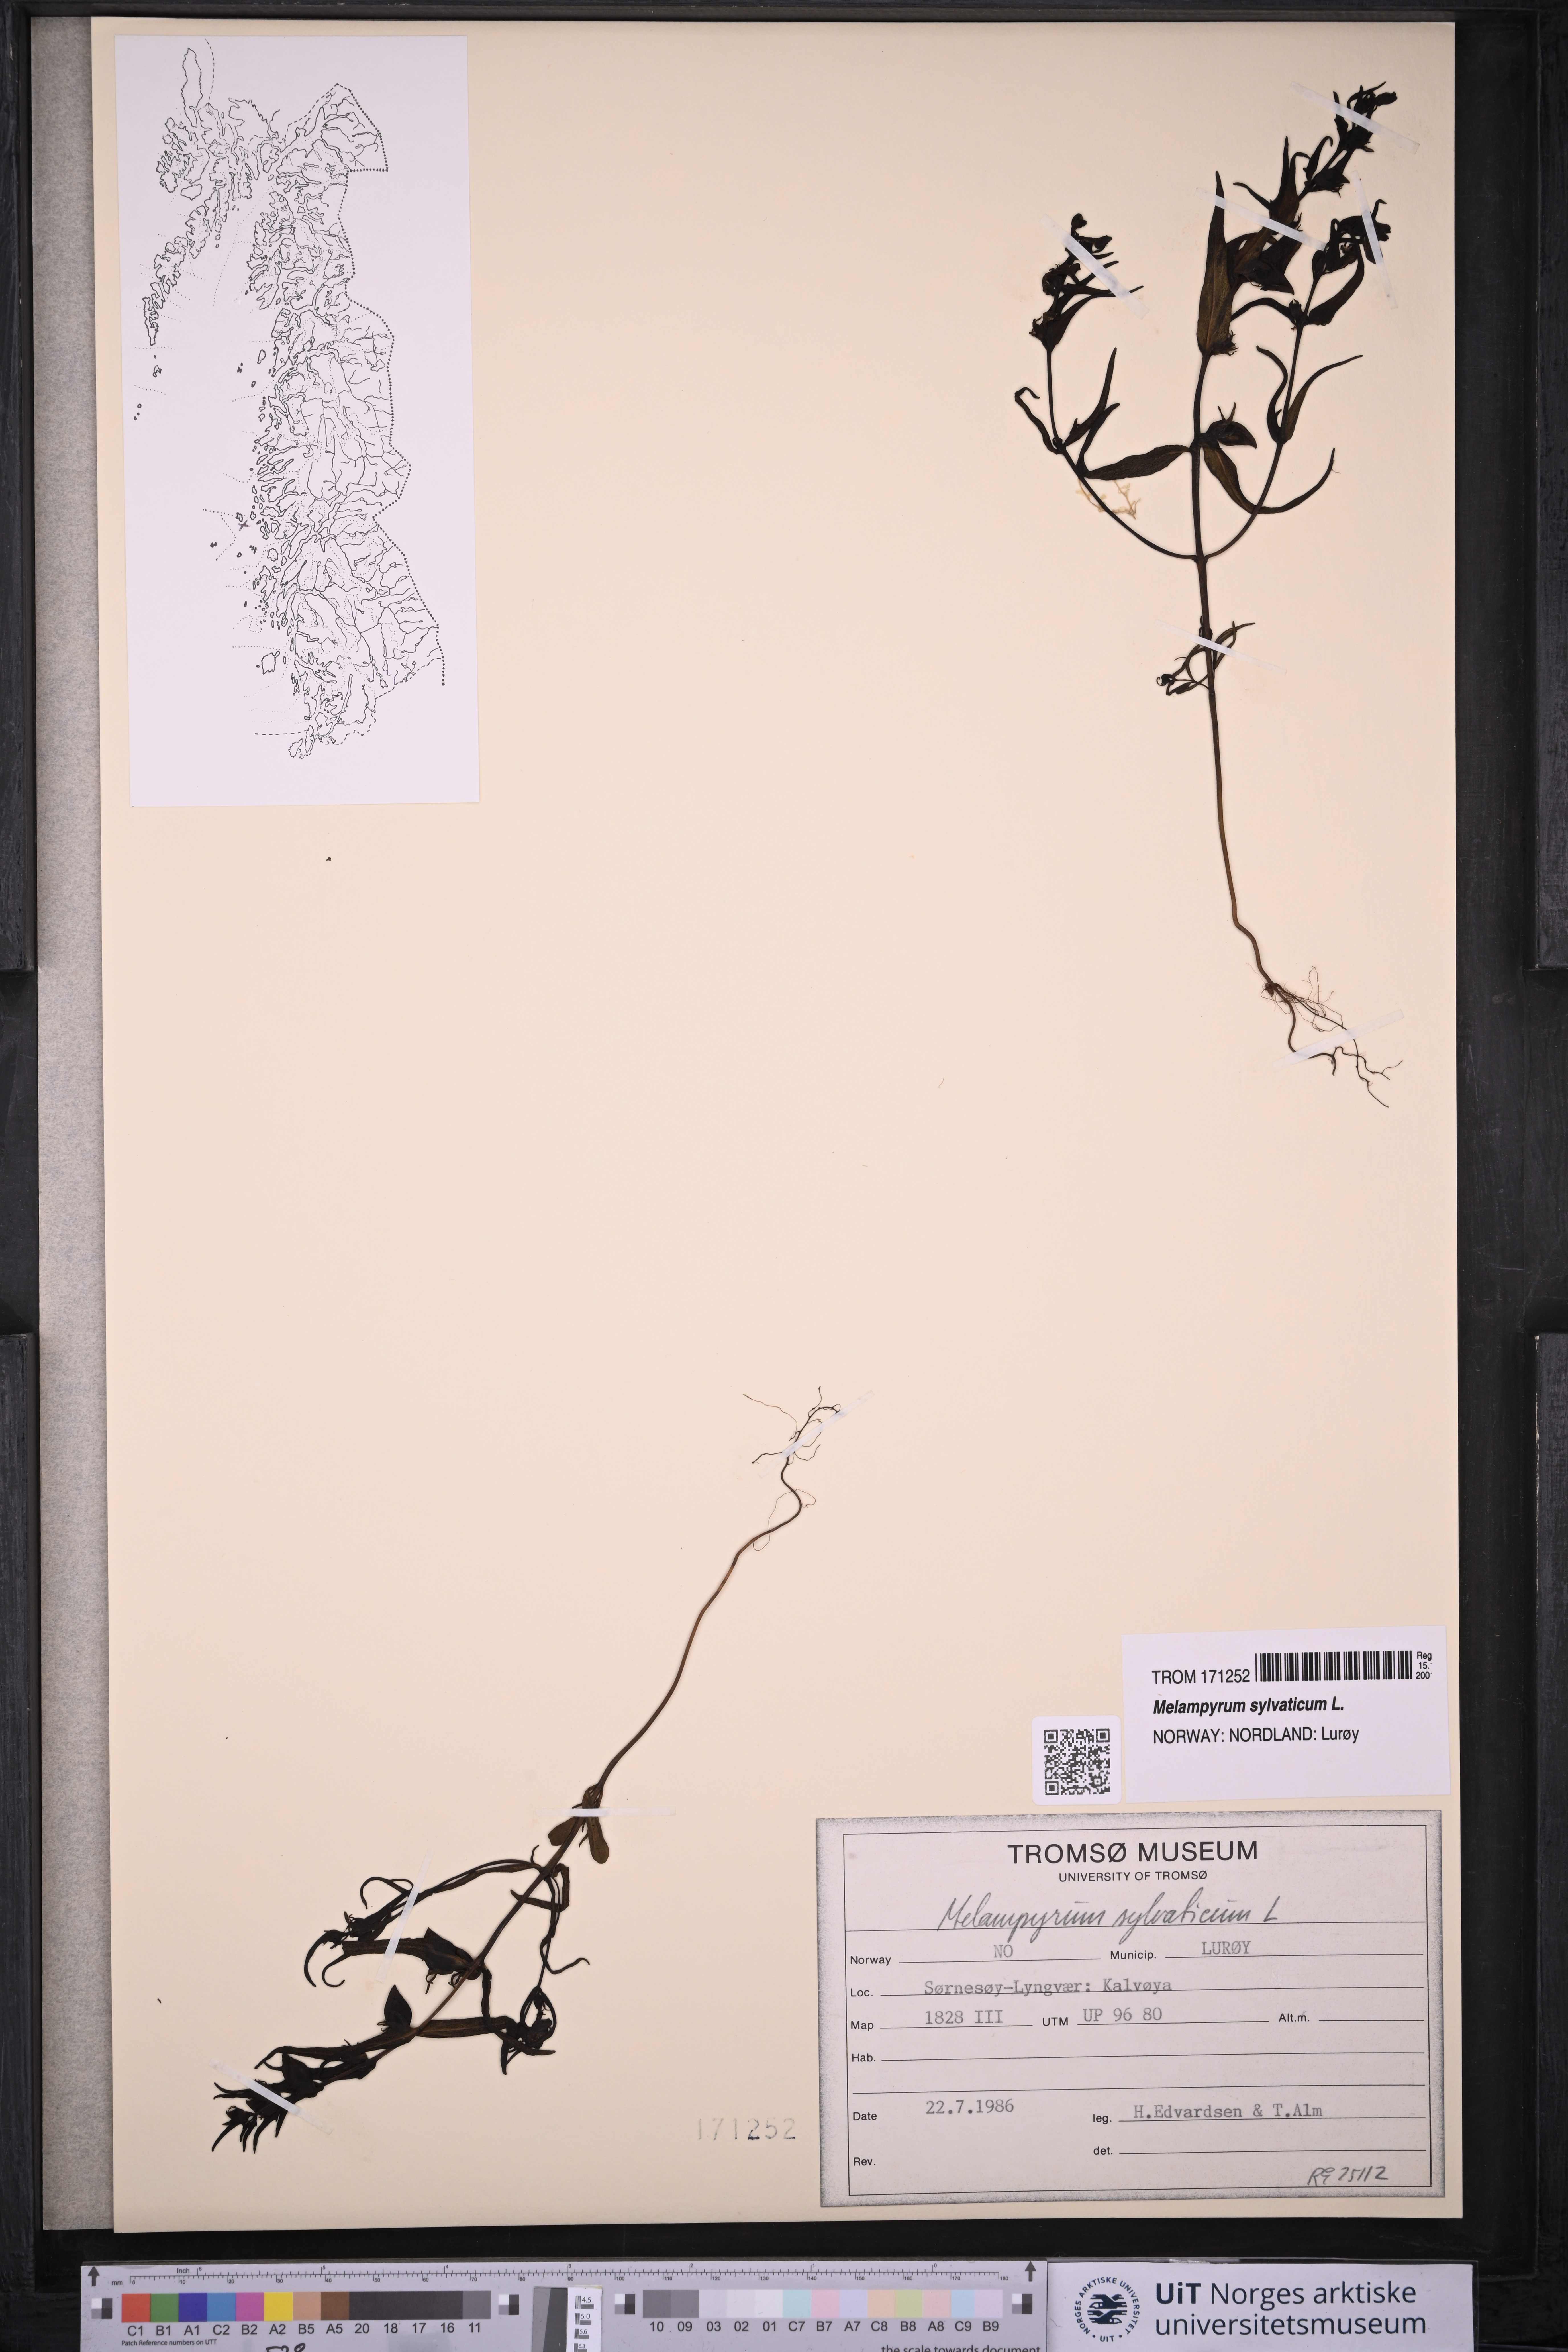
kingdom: Plantae
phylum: Tracheophyta
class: Magnoliopsida
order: Lamiales
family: Orobanchaceae
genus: Melampyrum
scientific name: Melampyrum sylvaticum
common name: Small cow-wheat
